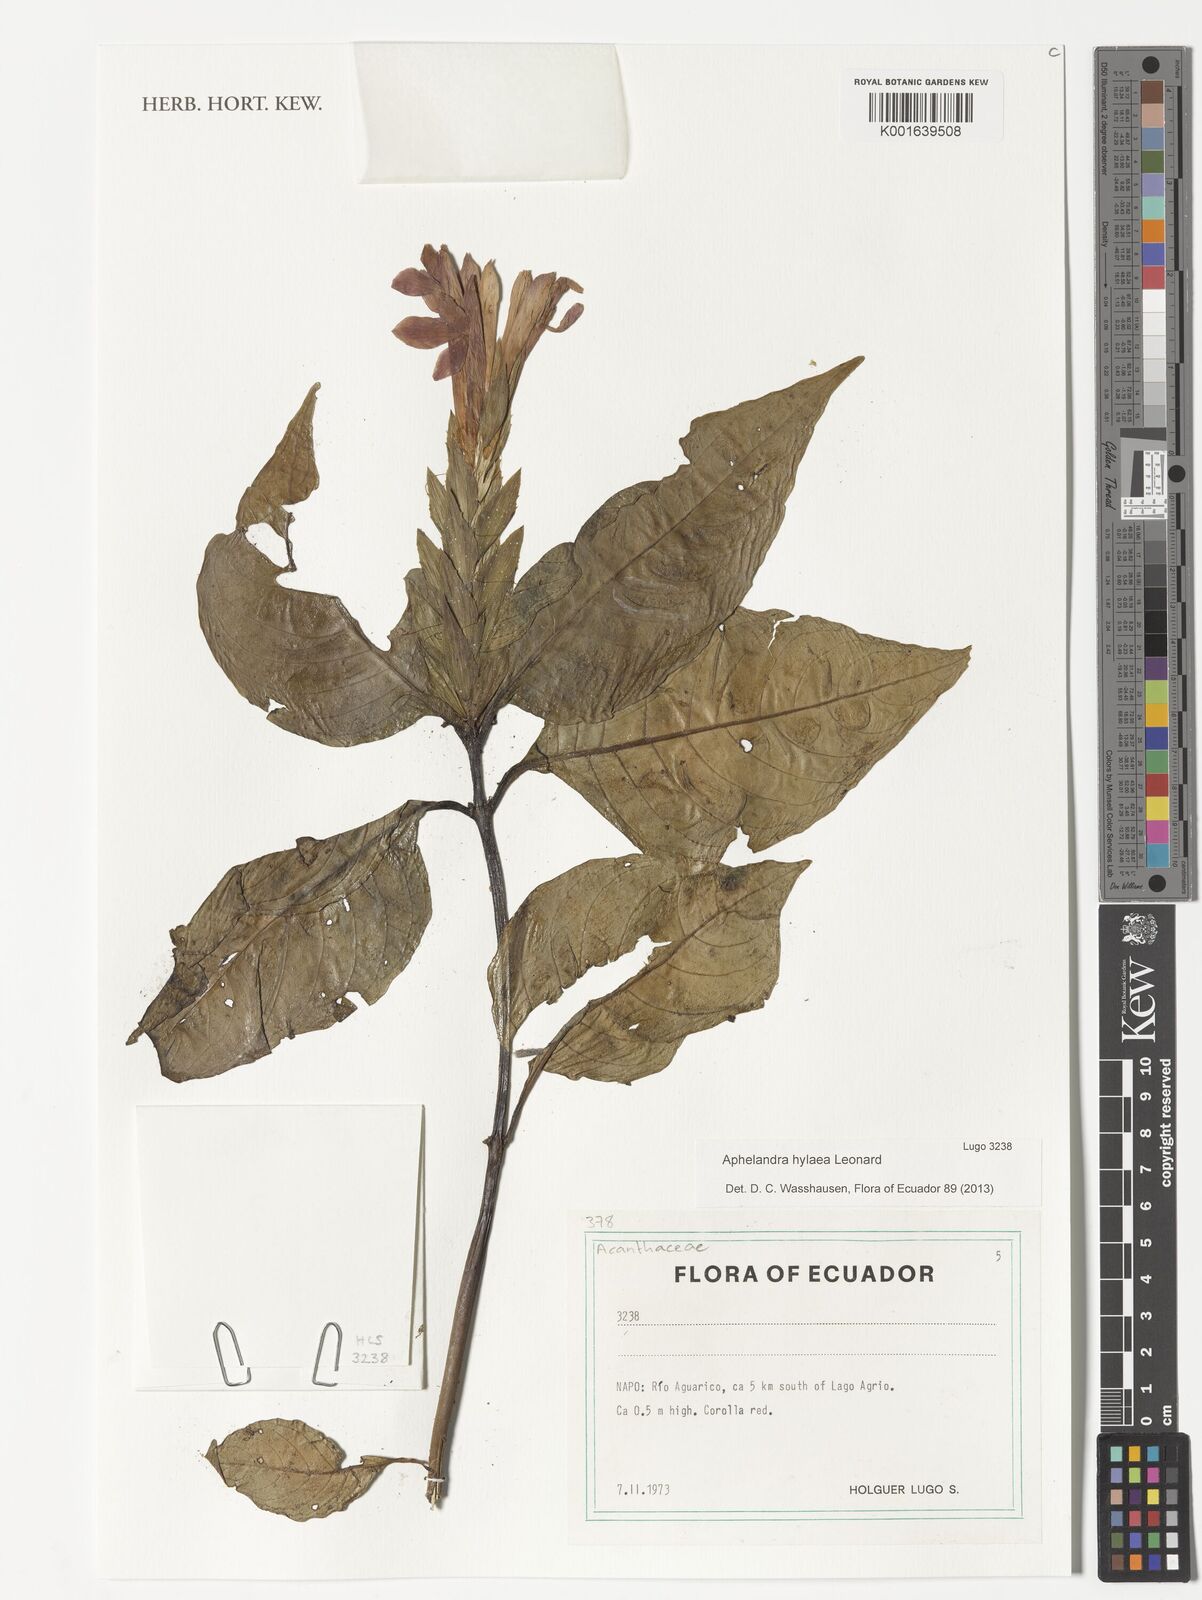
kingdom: Plantae
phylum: Tracheophyta
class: Magnoliopsida
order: Lamiales
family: Acanthaceae
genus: Aphelandra
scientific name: Aphelandra hylaea
